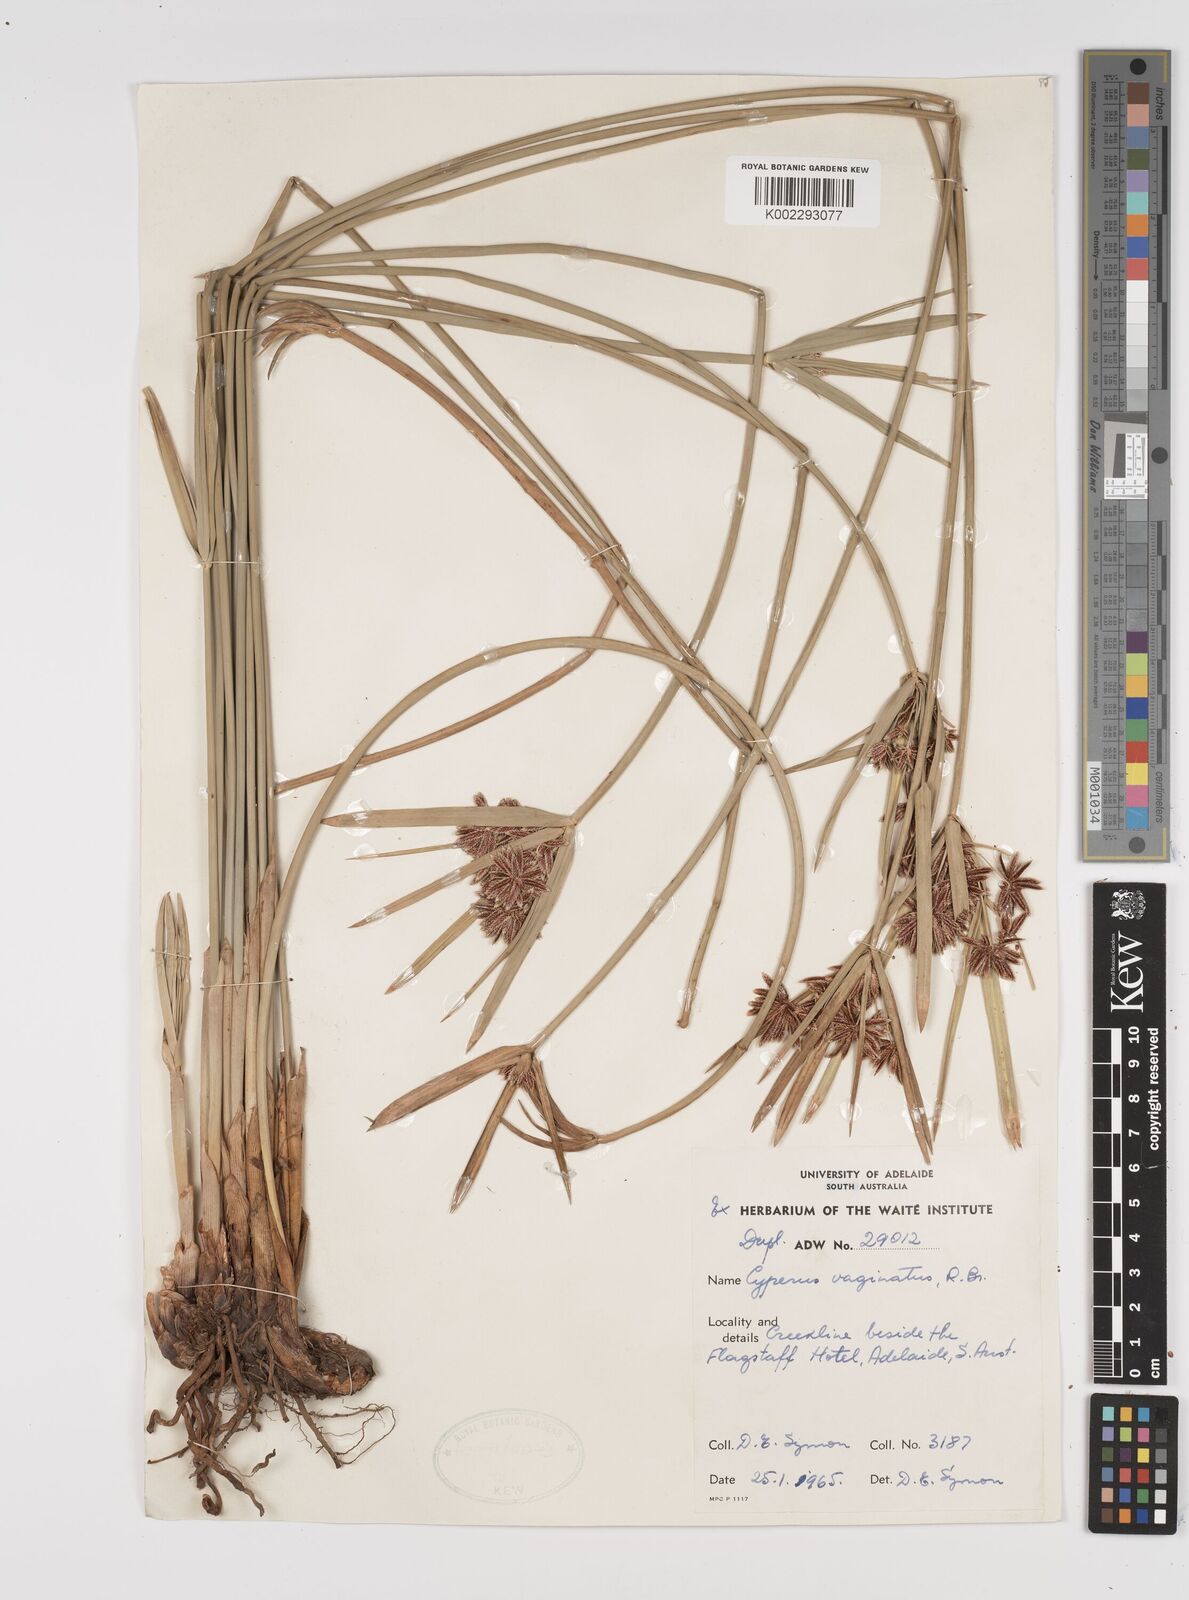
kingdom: Plantae
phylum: Tracheophyta
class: Liliopsida
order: Poales
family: Cyperaceae
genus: Cyperus
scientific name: Cyperus vaginatus
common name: Stiff-leaved flat-sedge
